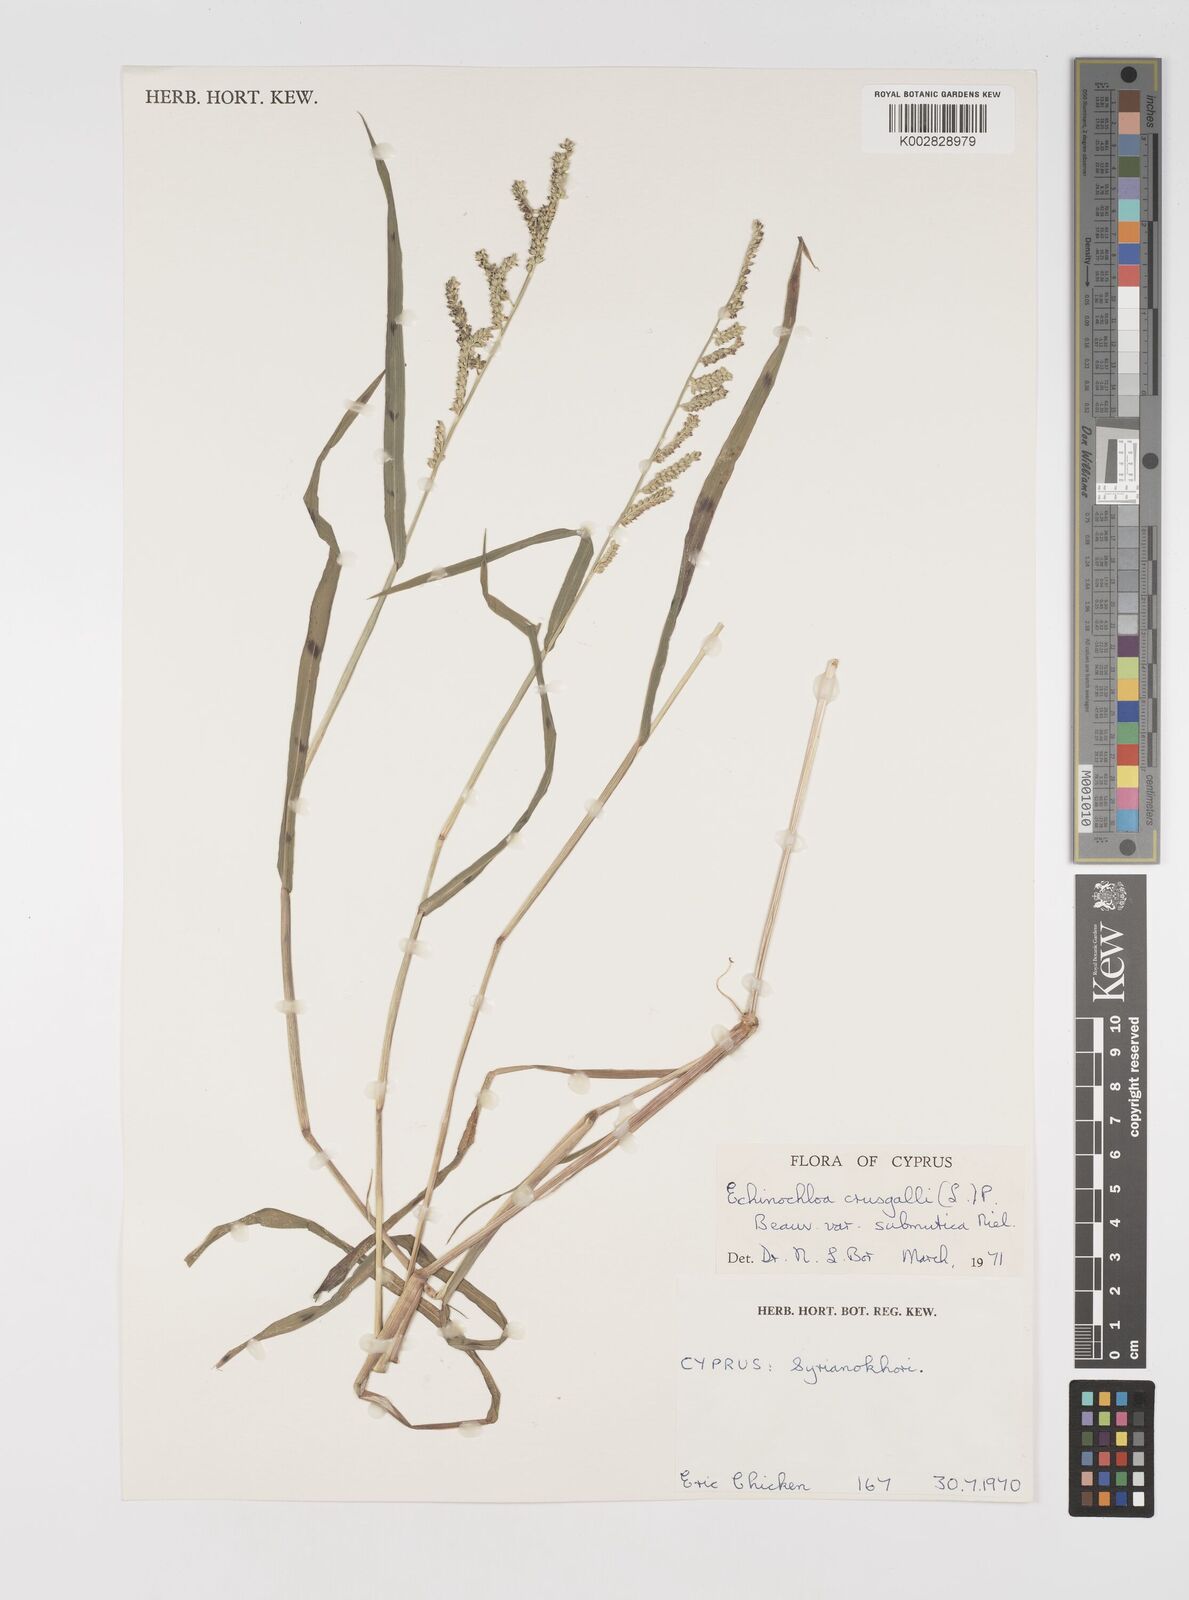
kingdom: Plantae
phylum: Tracheophyta
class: Liliopsida
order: Poales
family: Poaceae
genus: Echinochloa
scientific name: Echinochloa colonum
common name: Jungle rice
